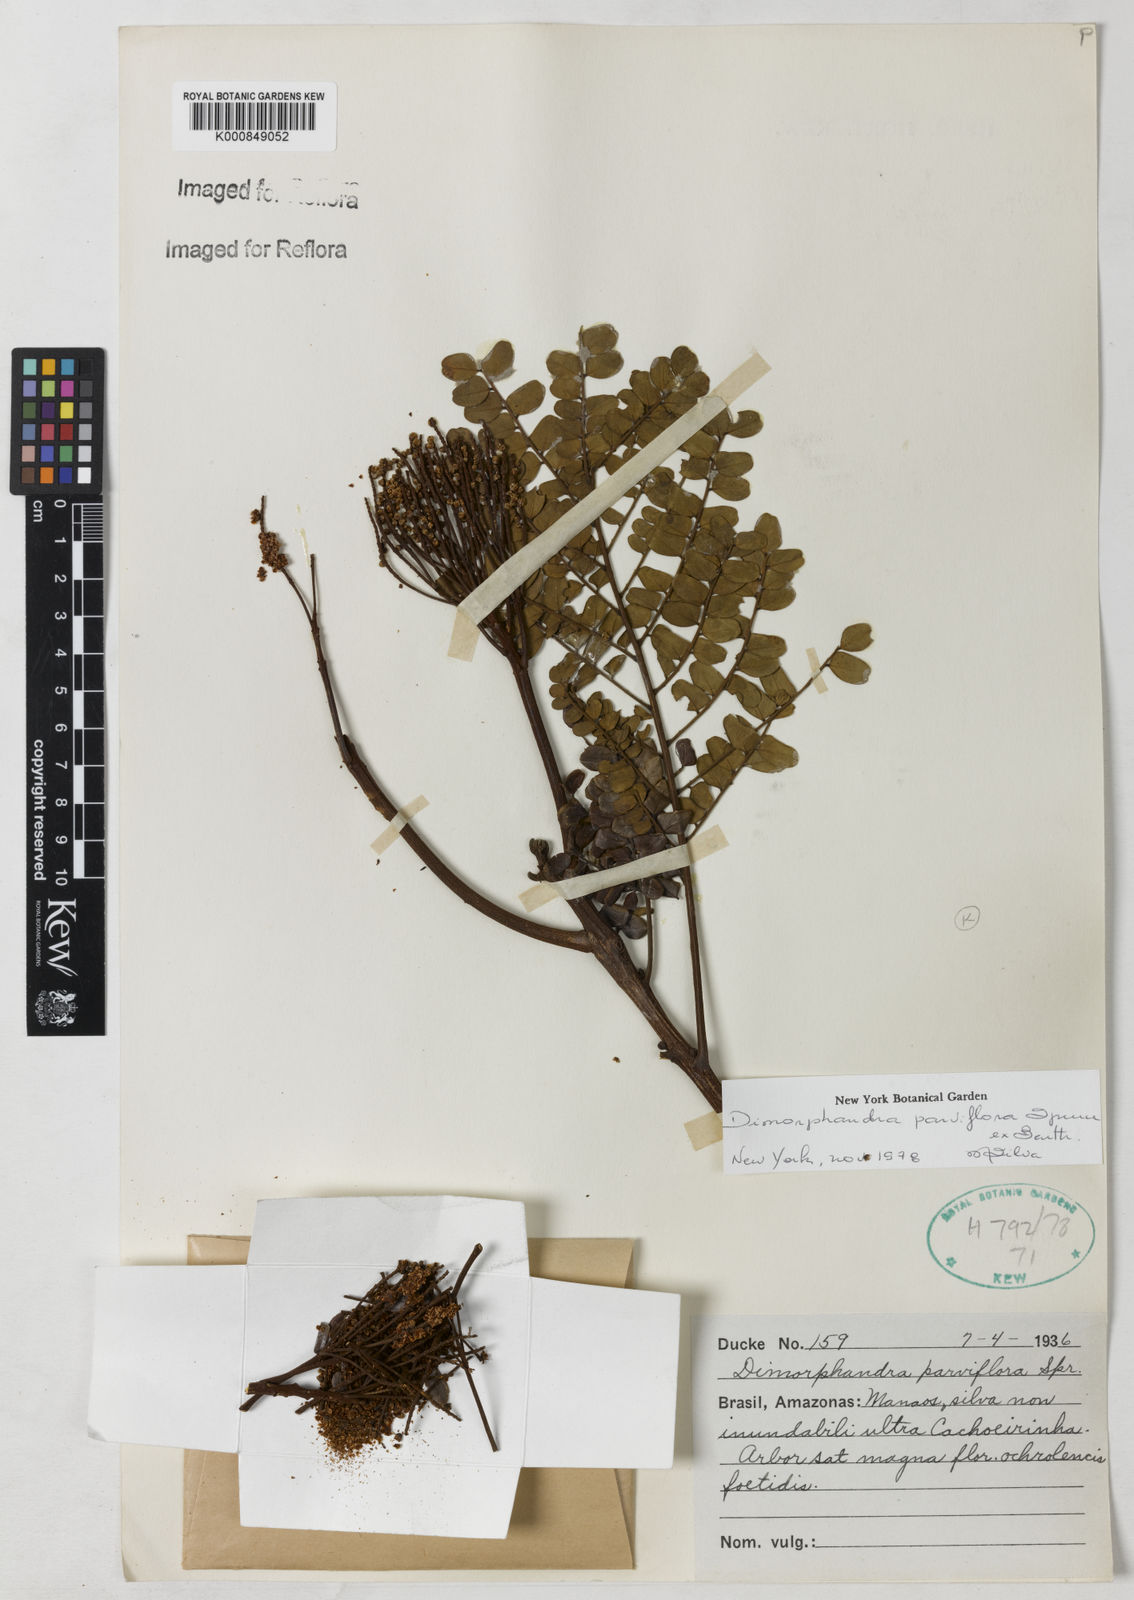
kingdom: Plantae
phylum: Tracheophyta
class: Magnoliopsida
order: Fabales
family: Fabaceae
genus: Dimorphandra
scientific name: Dimorphandra parviflora
